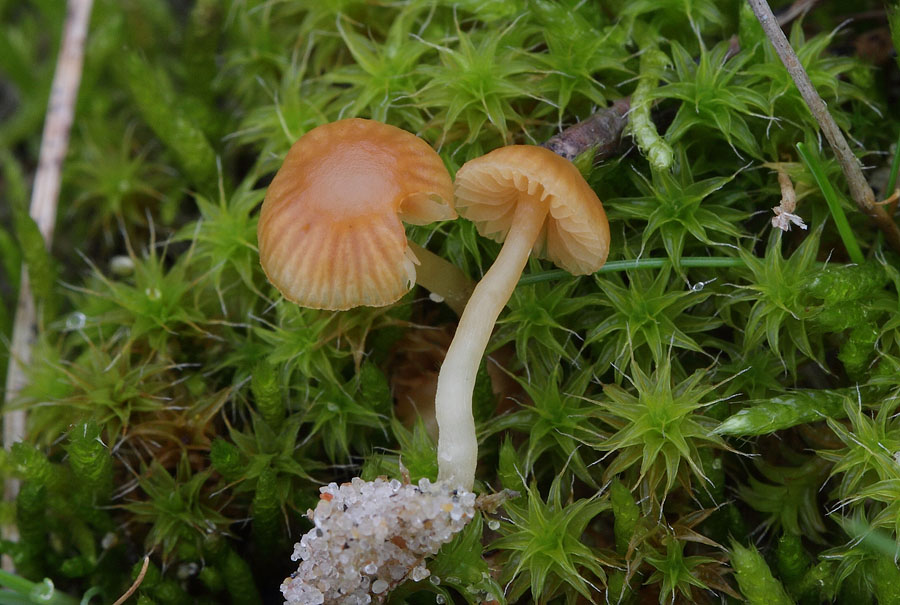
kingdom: Fungi
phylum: Basidiomycota
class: Agaricomycetes
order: Agaricales
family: Hymenogastraceae
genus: Galerina
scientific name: Galerina graminea
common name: plæne-hjelmhat
